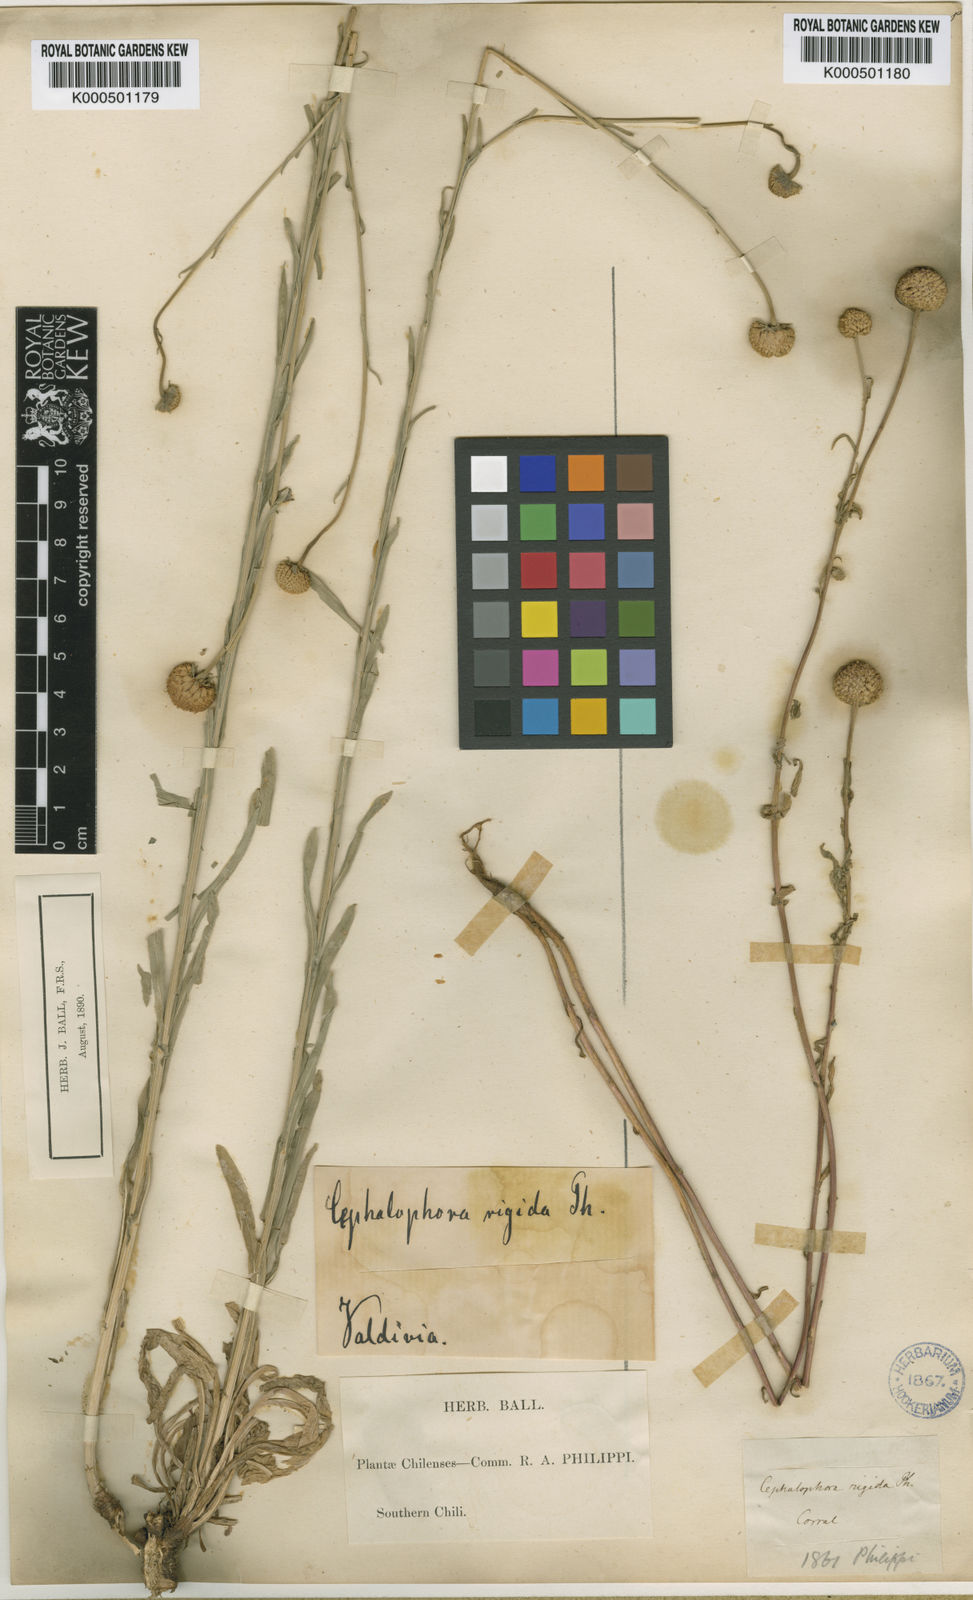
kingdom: Plantae
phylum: Tracheophyta
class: Magnoliopsida
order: Asterales
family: Asteraceae
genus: Helenium
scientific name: Helenium glaucum
